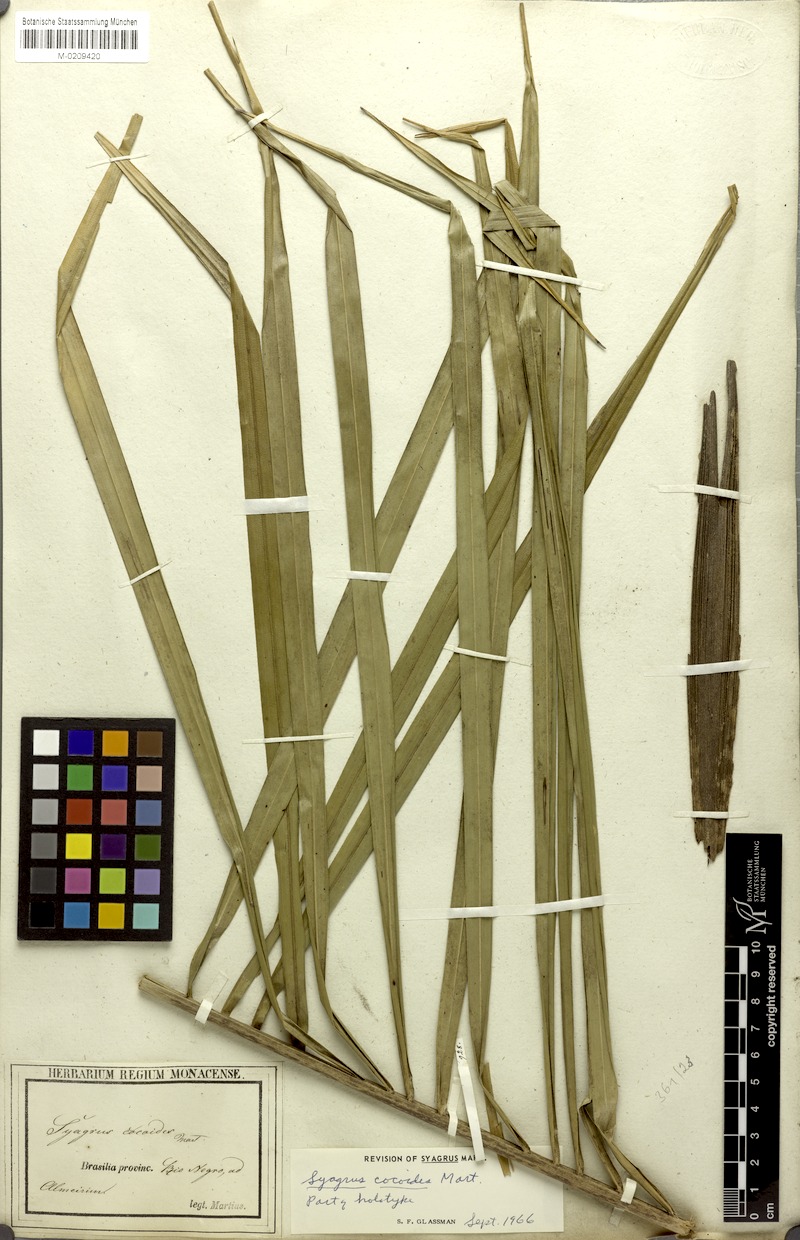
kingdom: Plantae
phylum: Tracheophyta
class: Liliopsida
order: Arecales
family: Arecaceae
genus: Syagrus
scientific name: Syagrus cocoides
